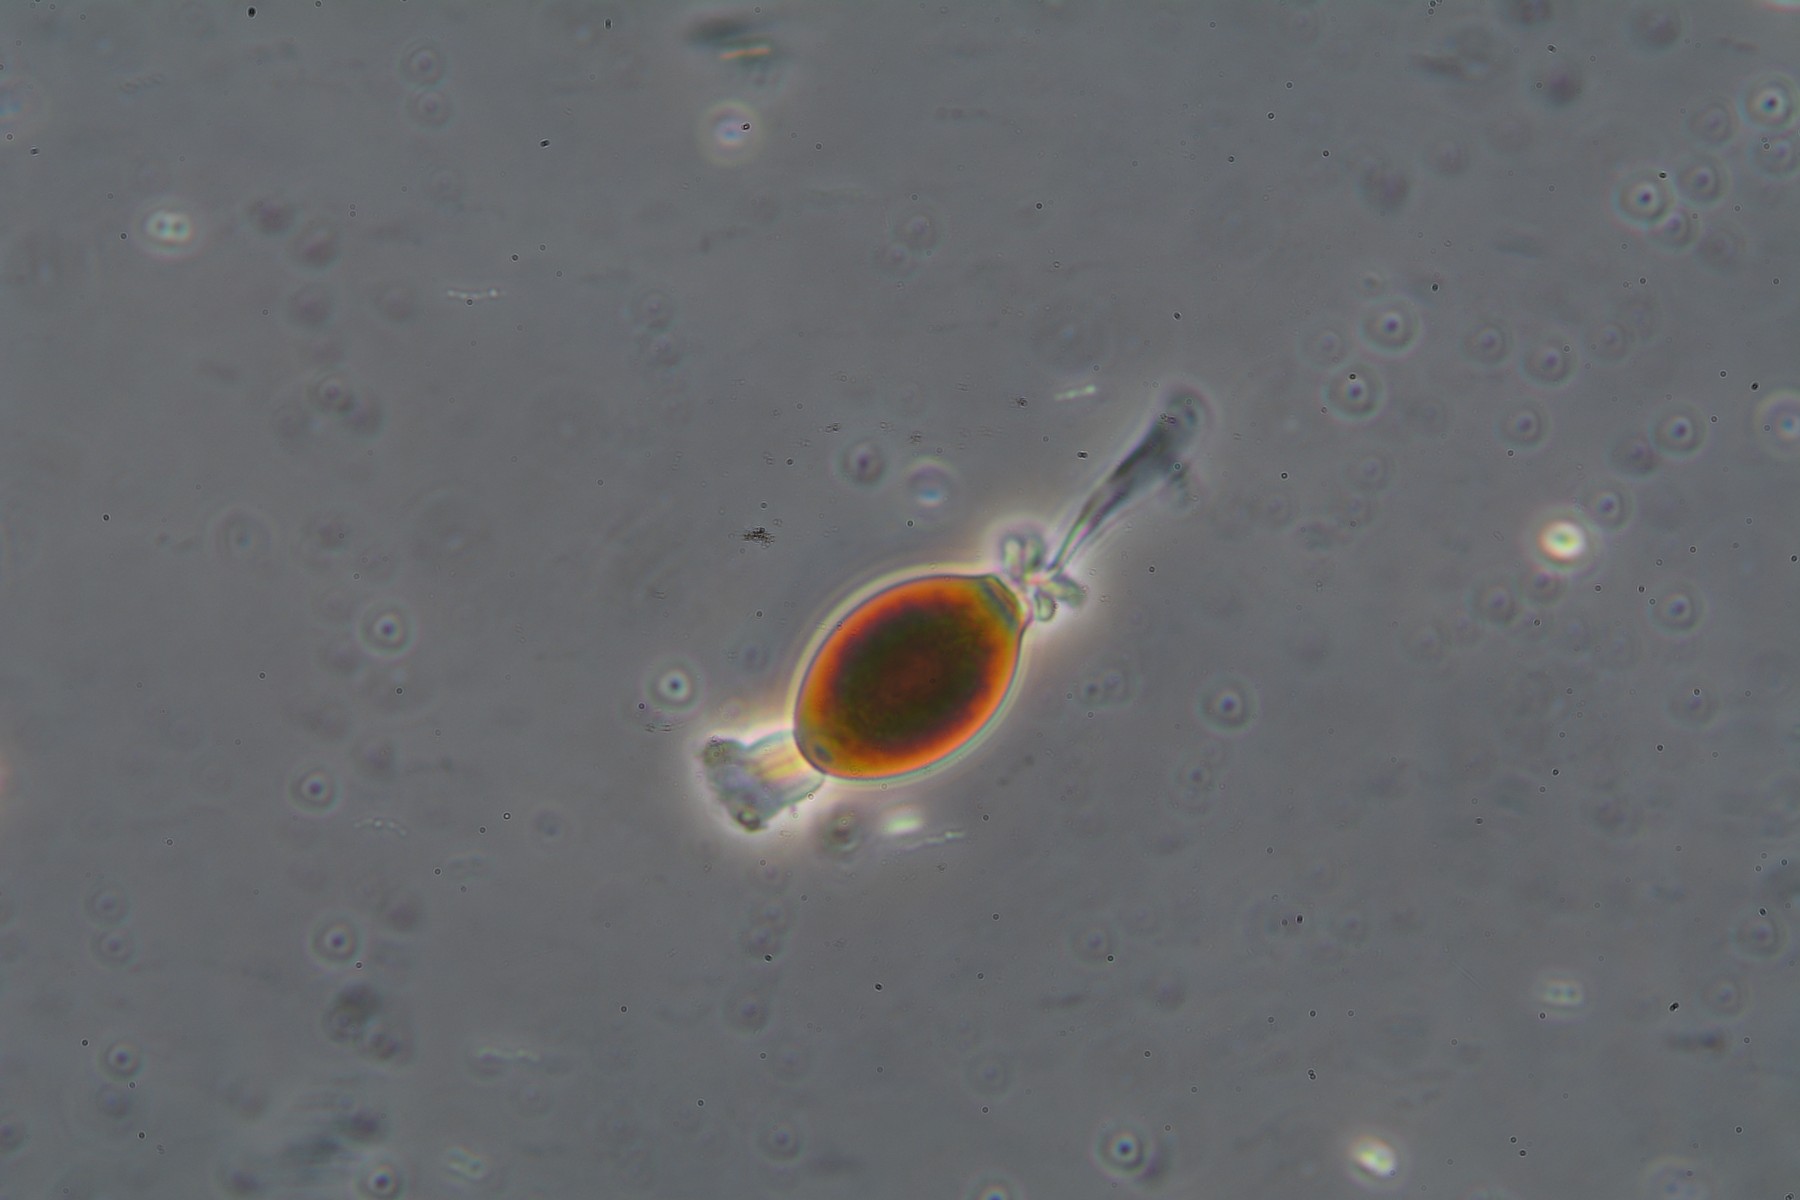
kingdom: Fungi
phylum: Ascomycota
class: Sordariomycetes
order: Sordariales
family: Naviculisporaceae
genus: Rhypophila
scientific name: Rhypophila decipiens
